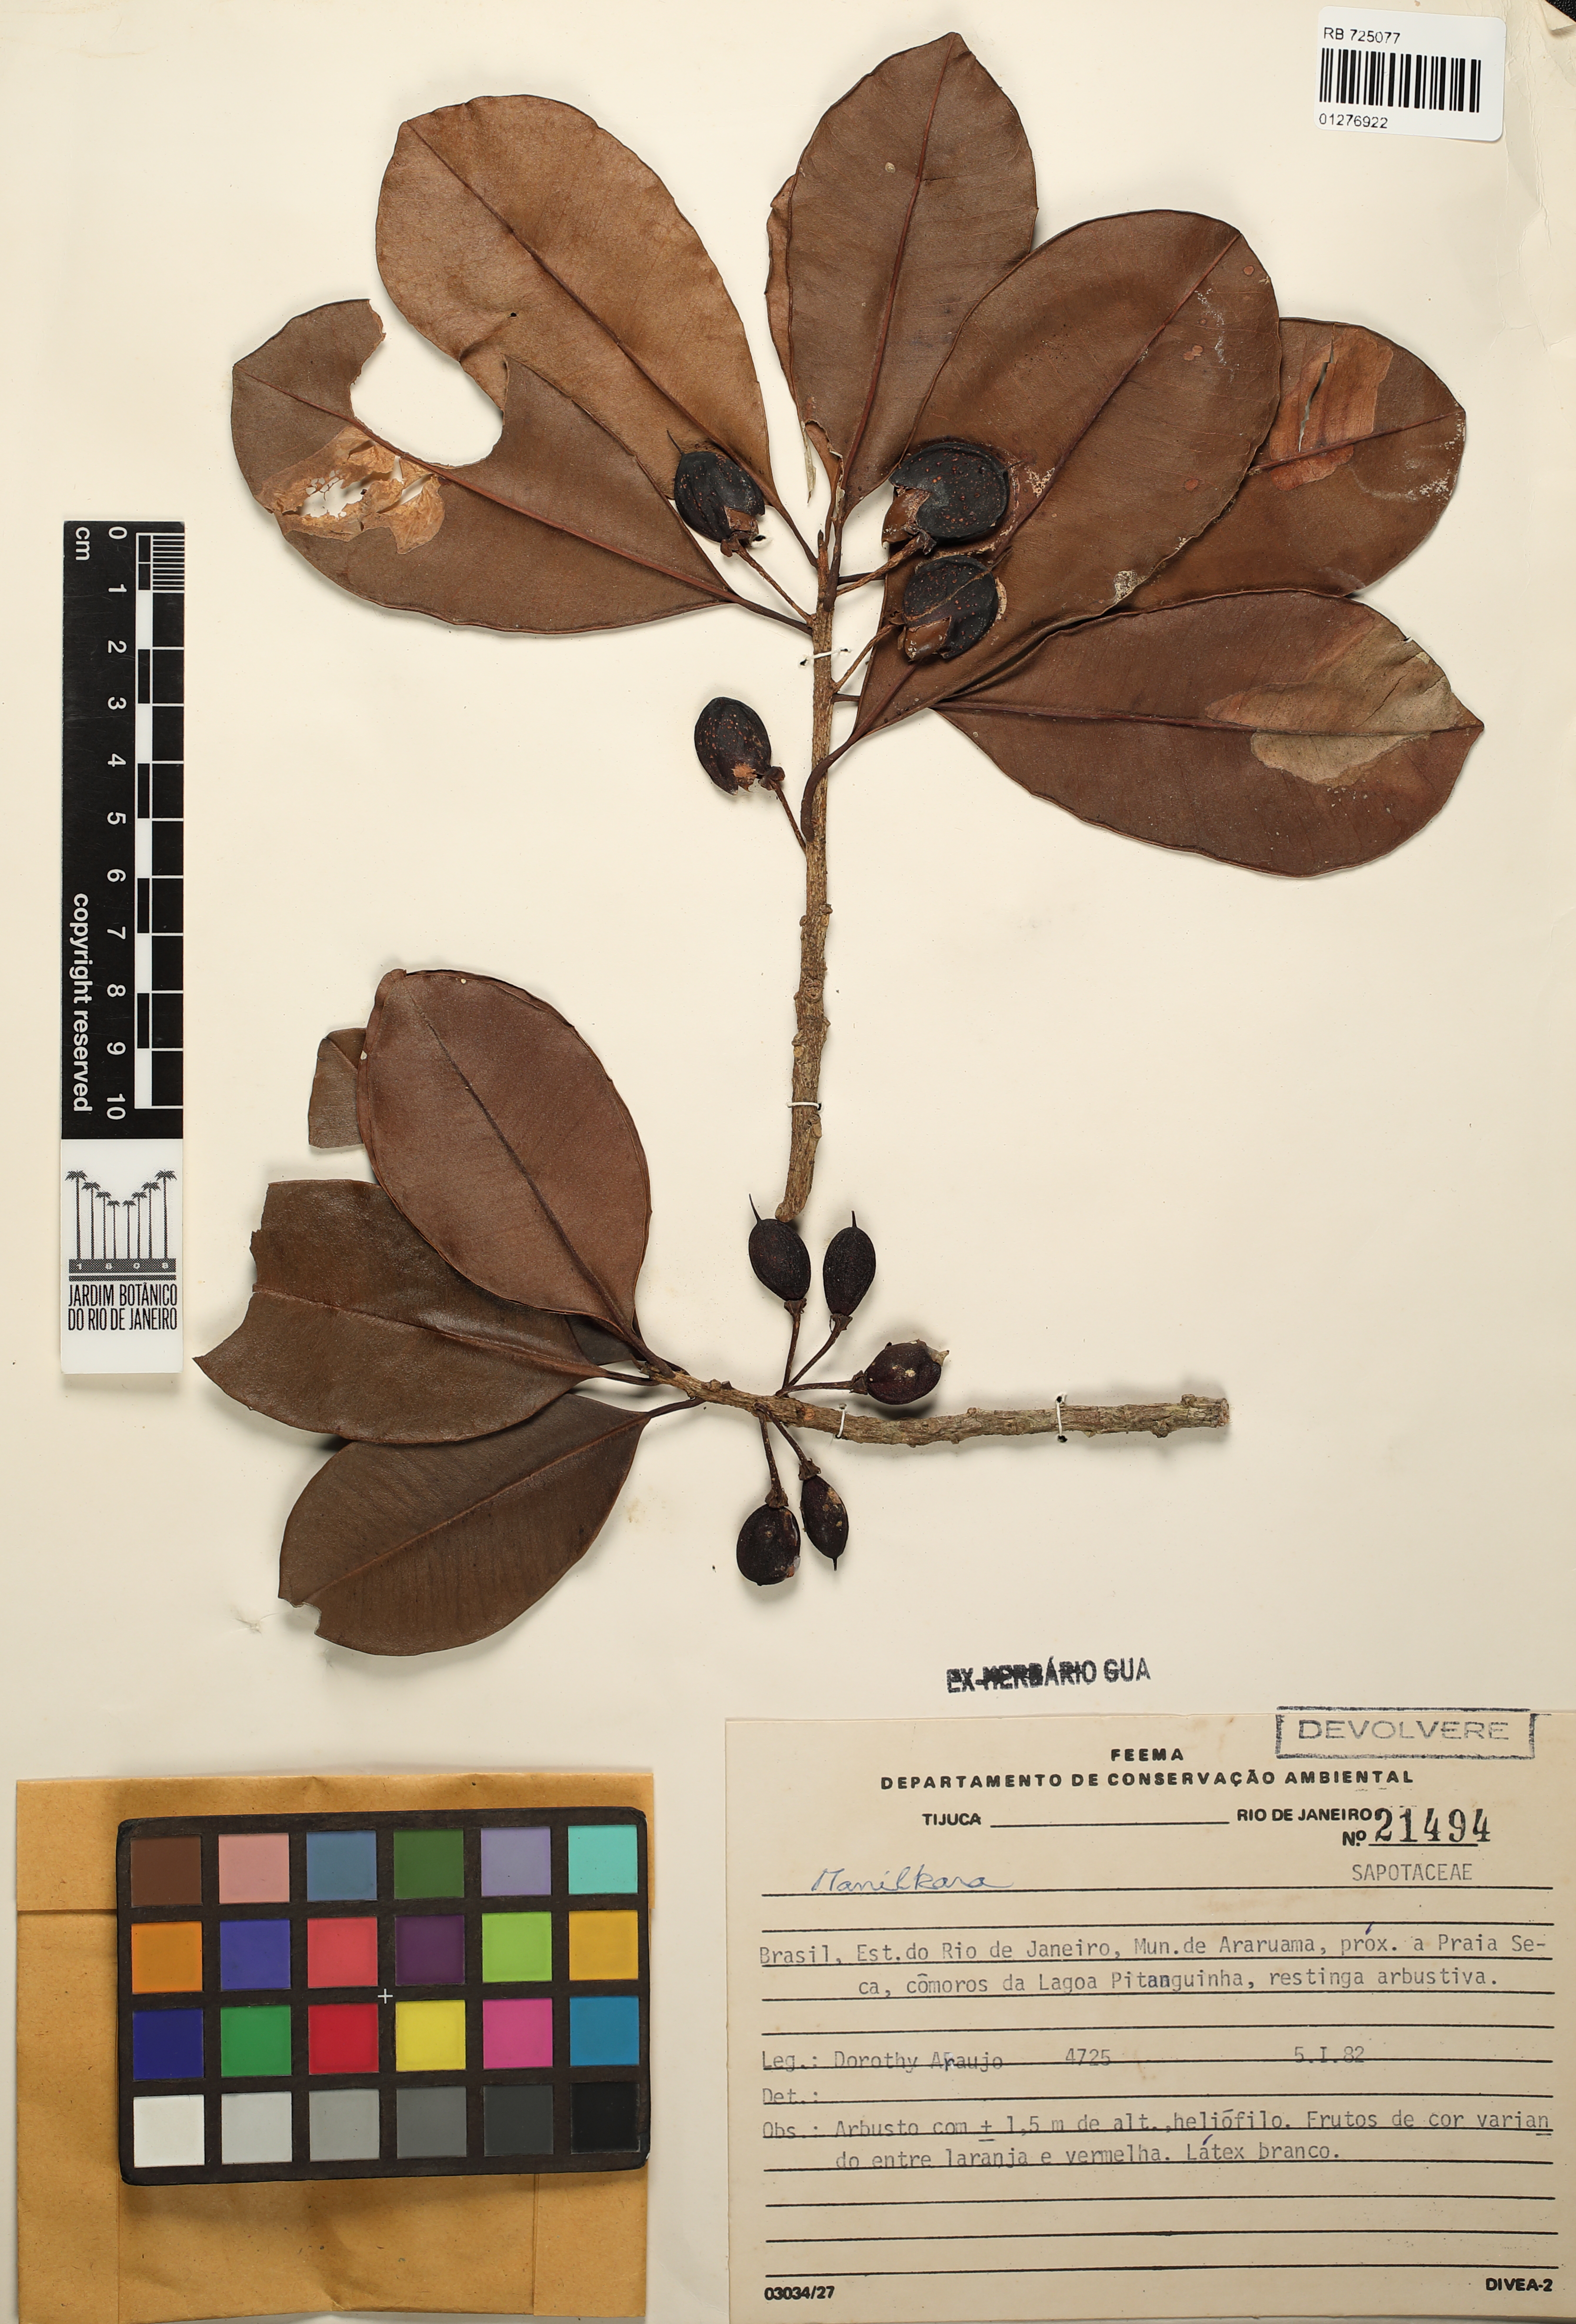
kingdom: Plantae
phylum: Tracheophyta
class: Magnoliopsida
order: Ericales
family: Sapotaceae
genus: Manilkara
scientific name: Manilkara
